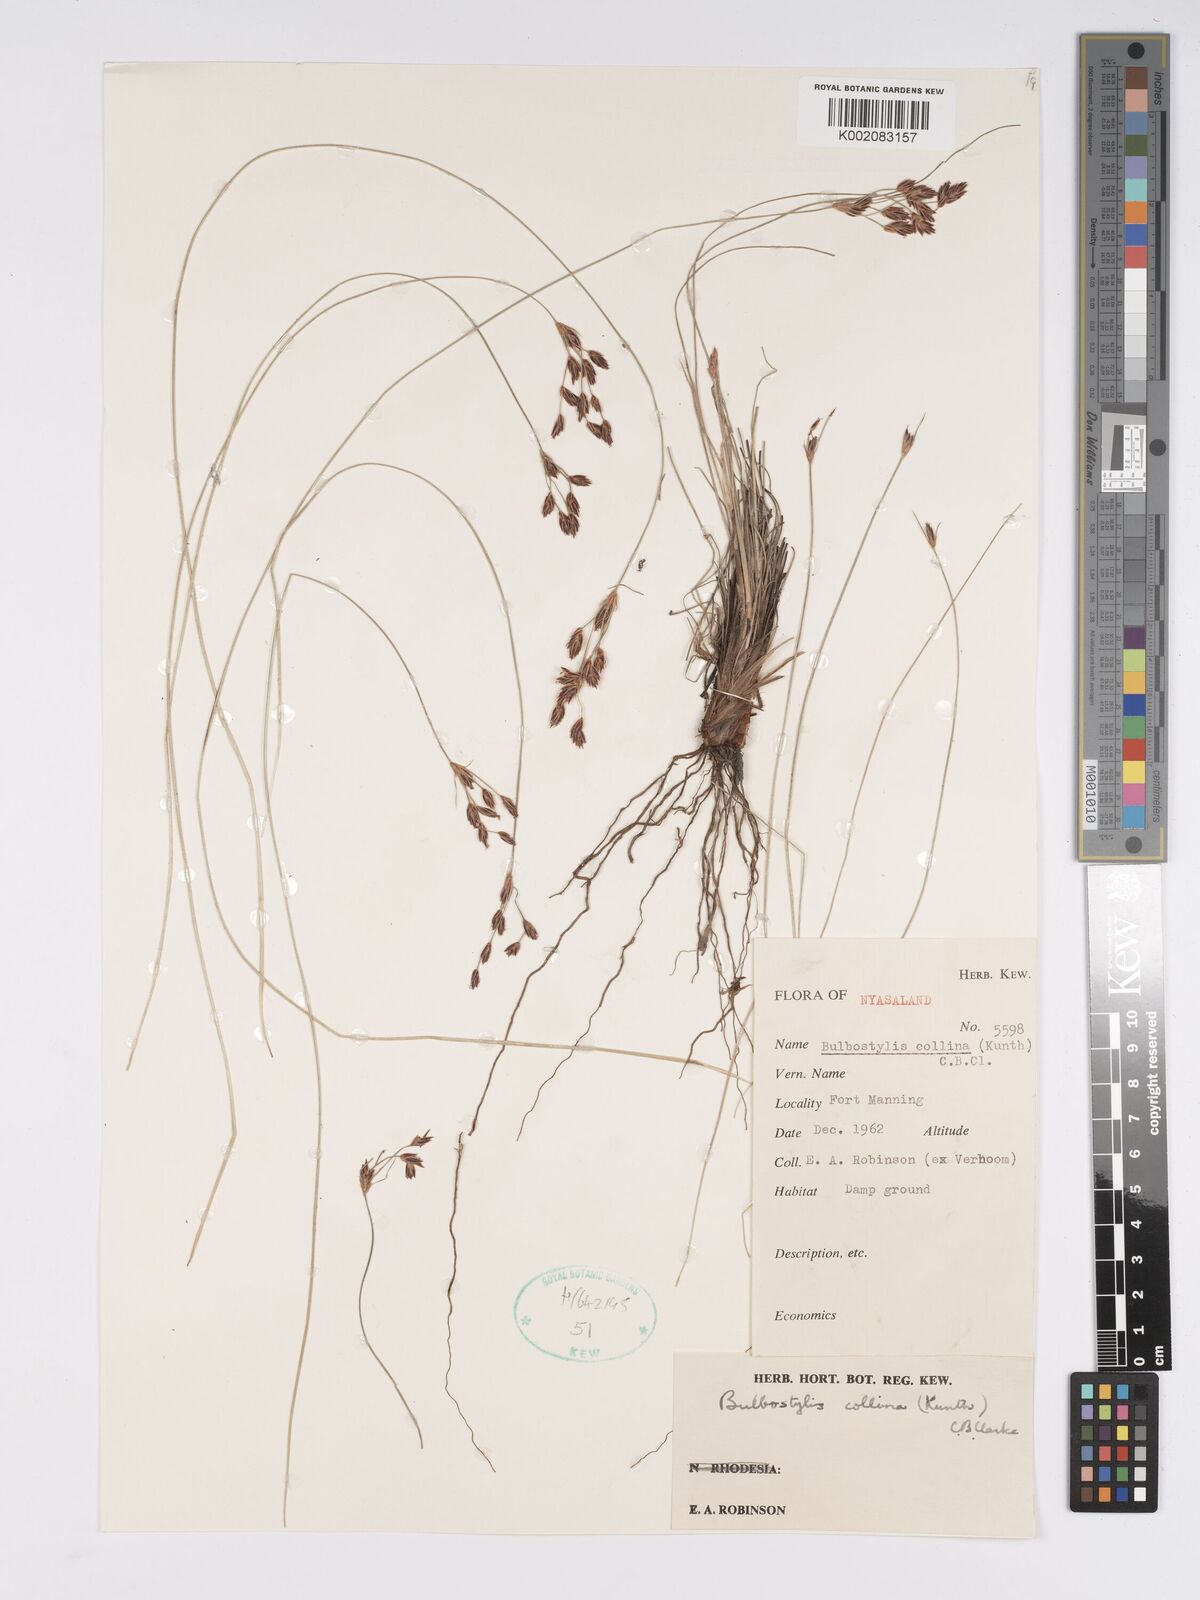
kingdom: Plantae
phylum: Tracheophyta
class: Liliopsida
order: Poales
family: Cyperaceae
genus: Bulbostylis
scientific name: Bulbostylis contexta
